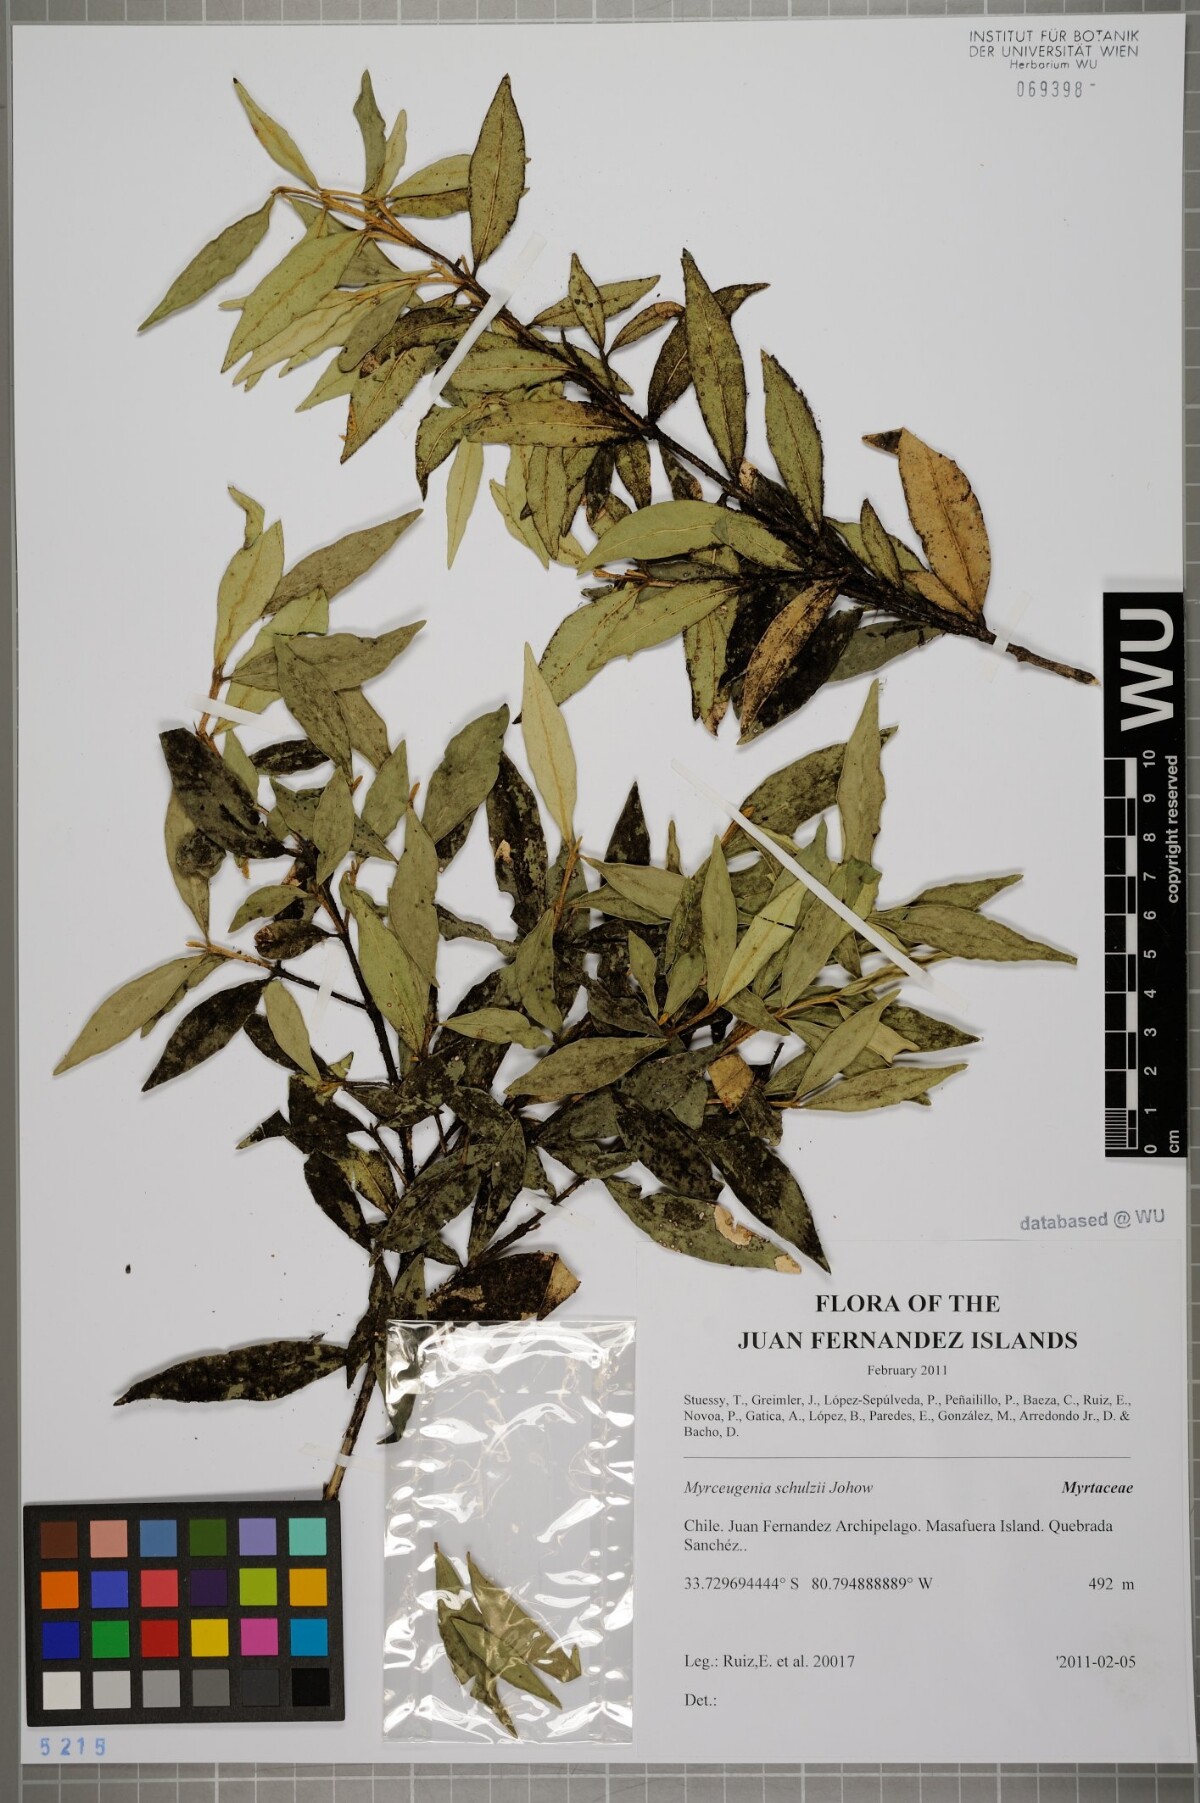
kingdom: Plantae
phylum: Tracheophyta
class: Magnoliopsida
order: Myrtales
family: Myrtaceae
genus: Myrceugenia
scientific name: Myrceugenia schulzei
